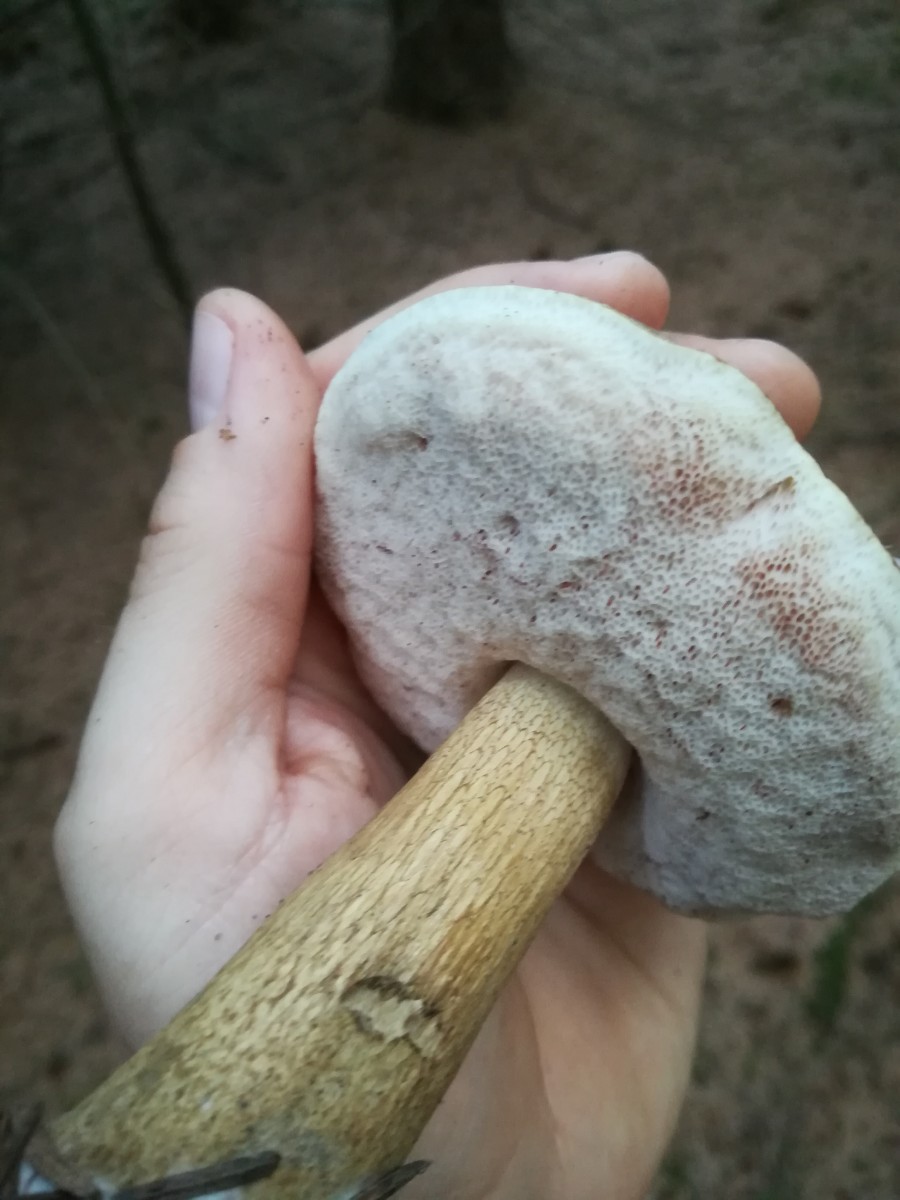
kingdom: Fungi
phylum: Basidiomycota
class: Agaricomycetes
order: Boletales
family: Boletaceae
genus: Tylopilus
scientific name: Tylopilus felleus
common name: galderørhat
